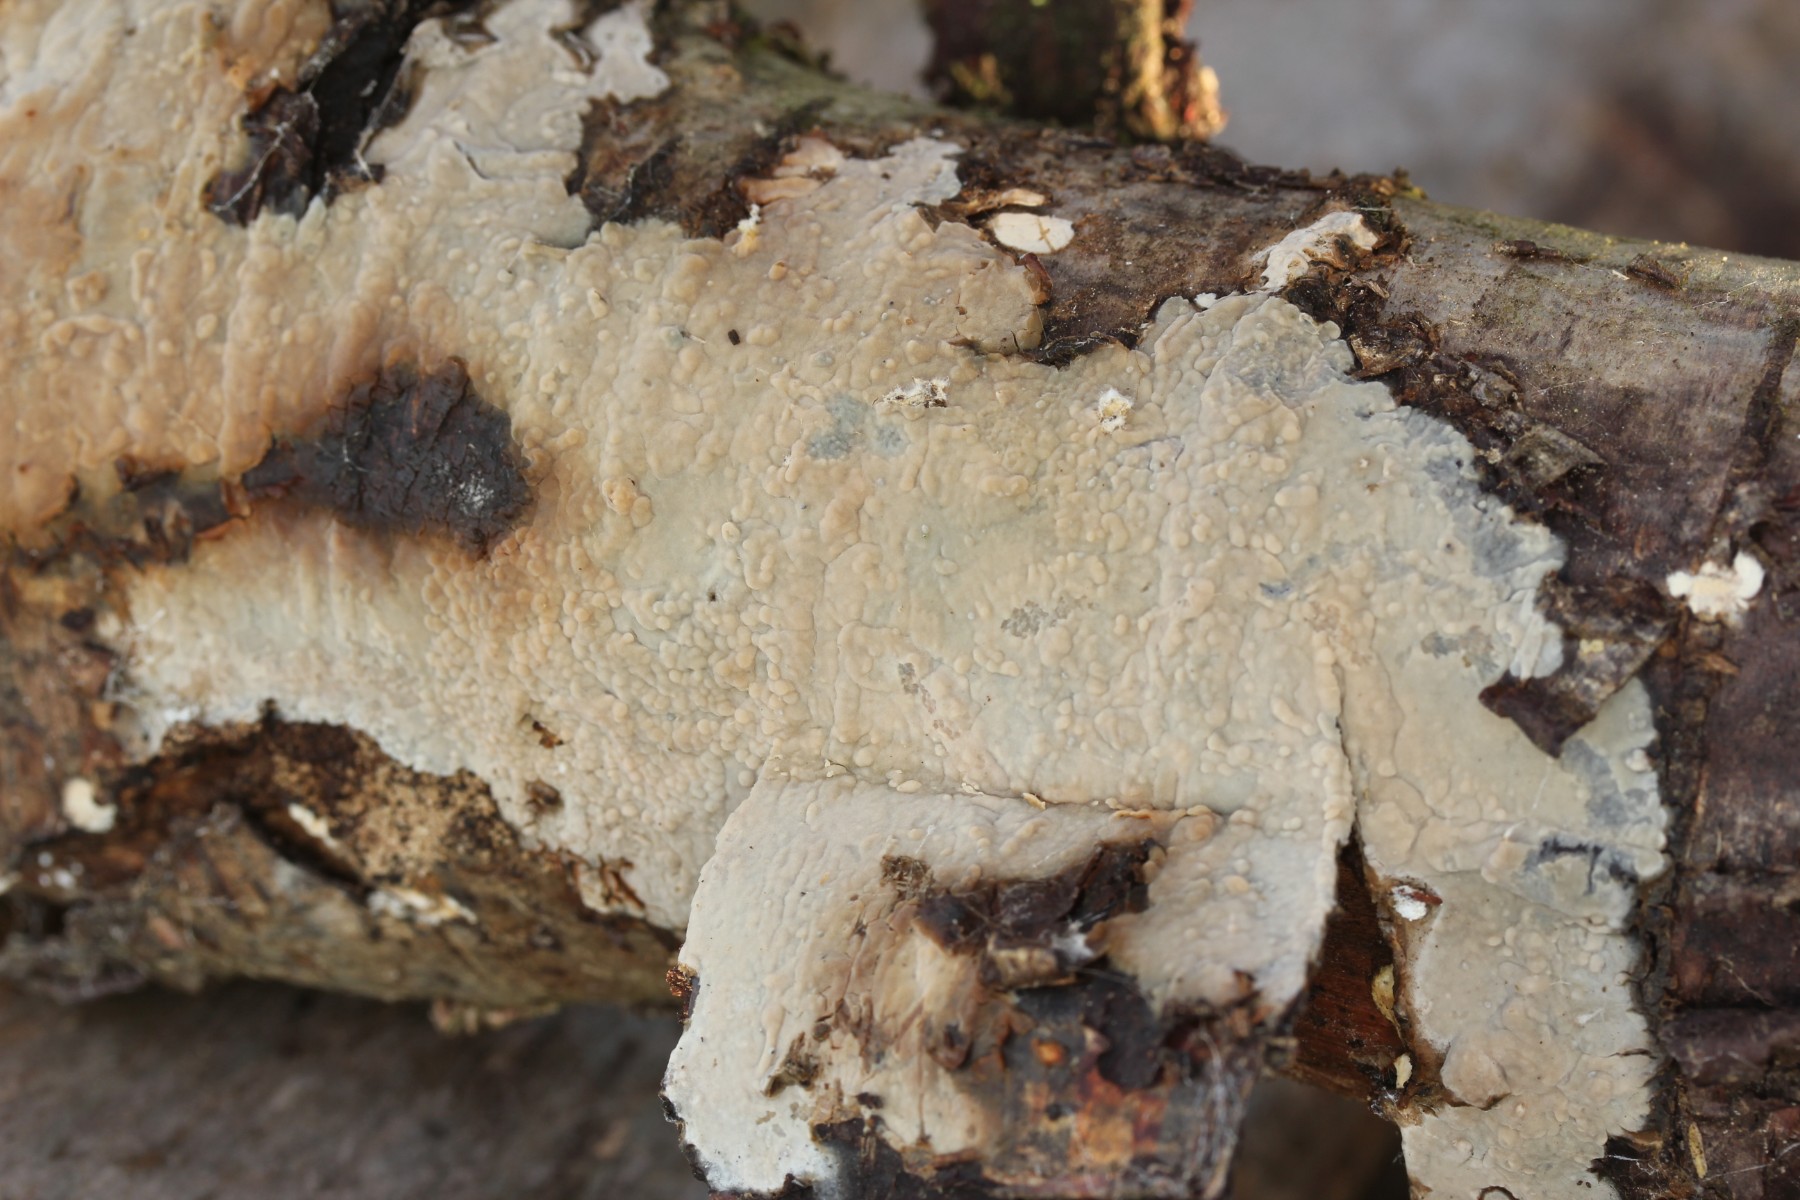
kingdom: Fungi
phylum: Basidiomycota
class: Agaricomycetes
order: Agaricales
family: Radulomycetaceae
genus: Radulomyces
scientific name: Radulomyces confluens
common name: glat naftalinskind
